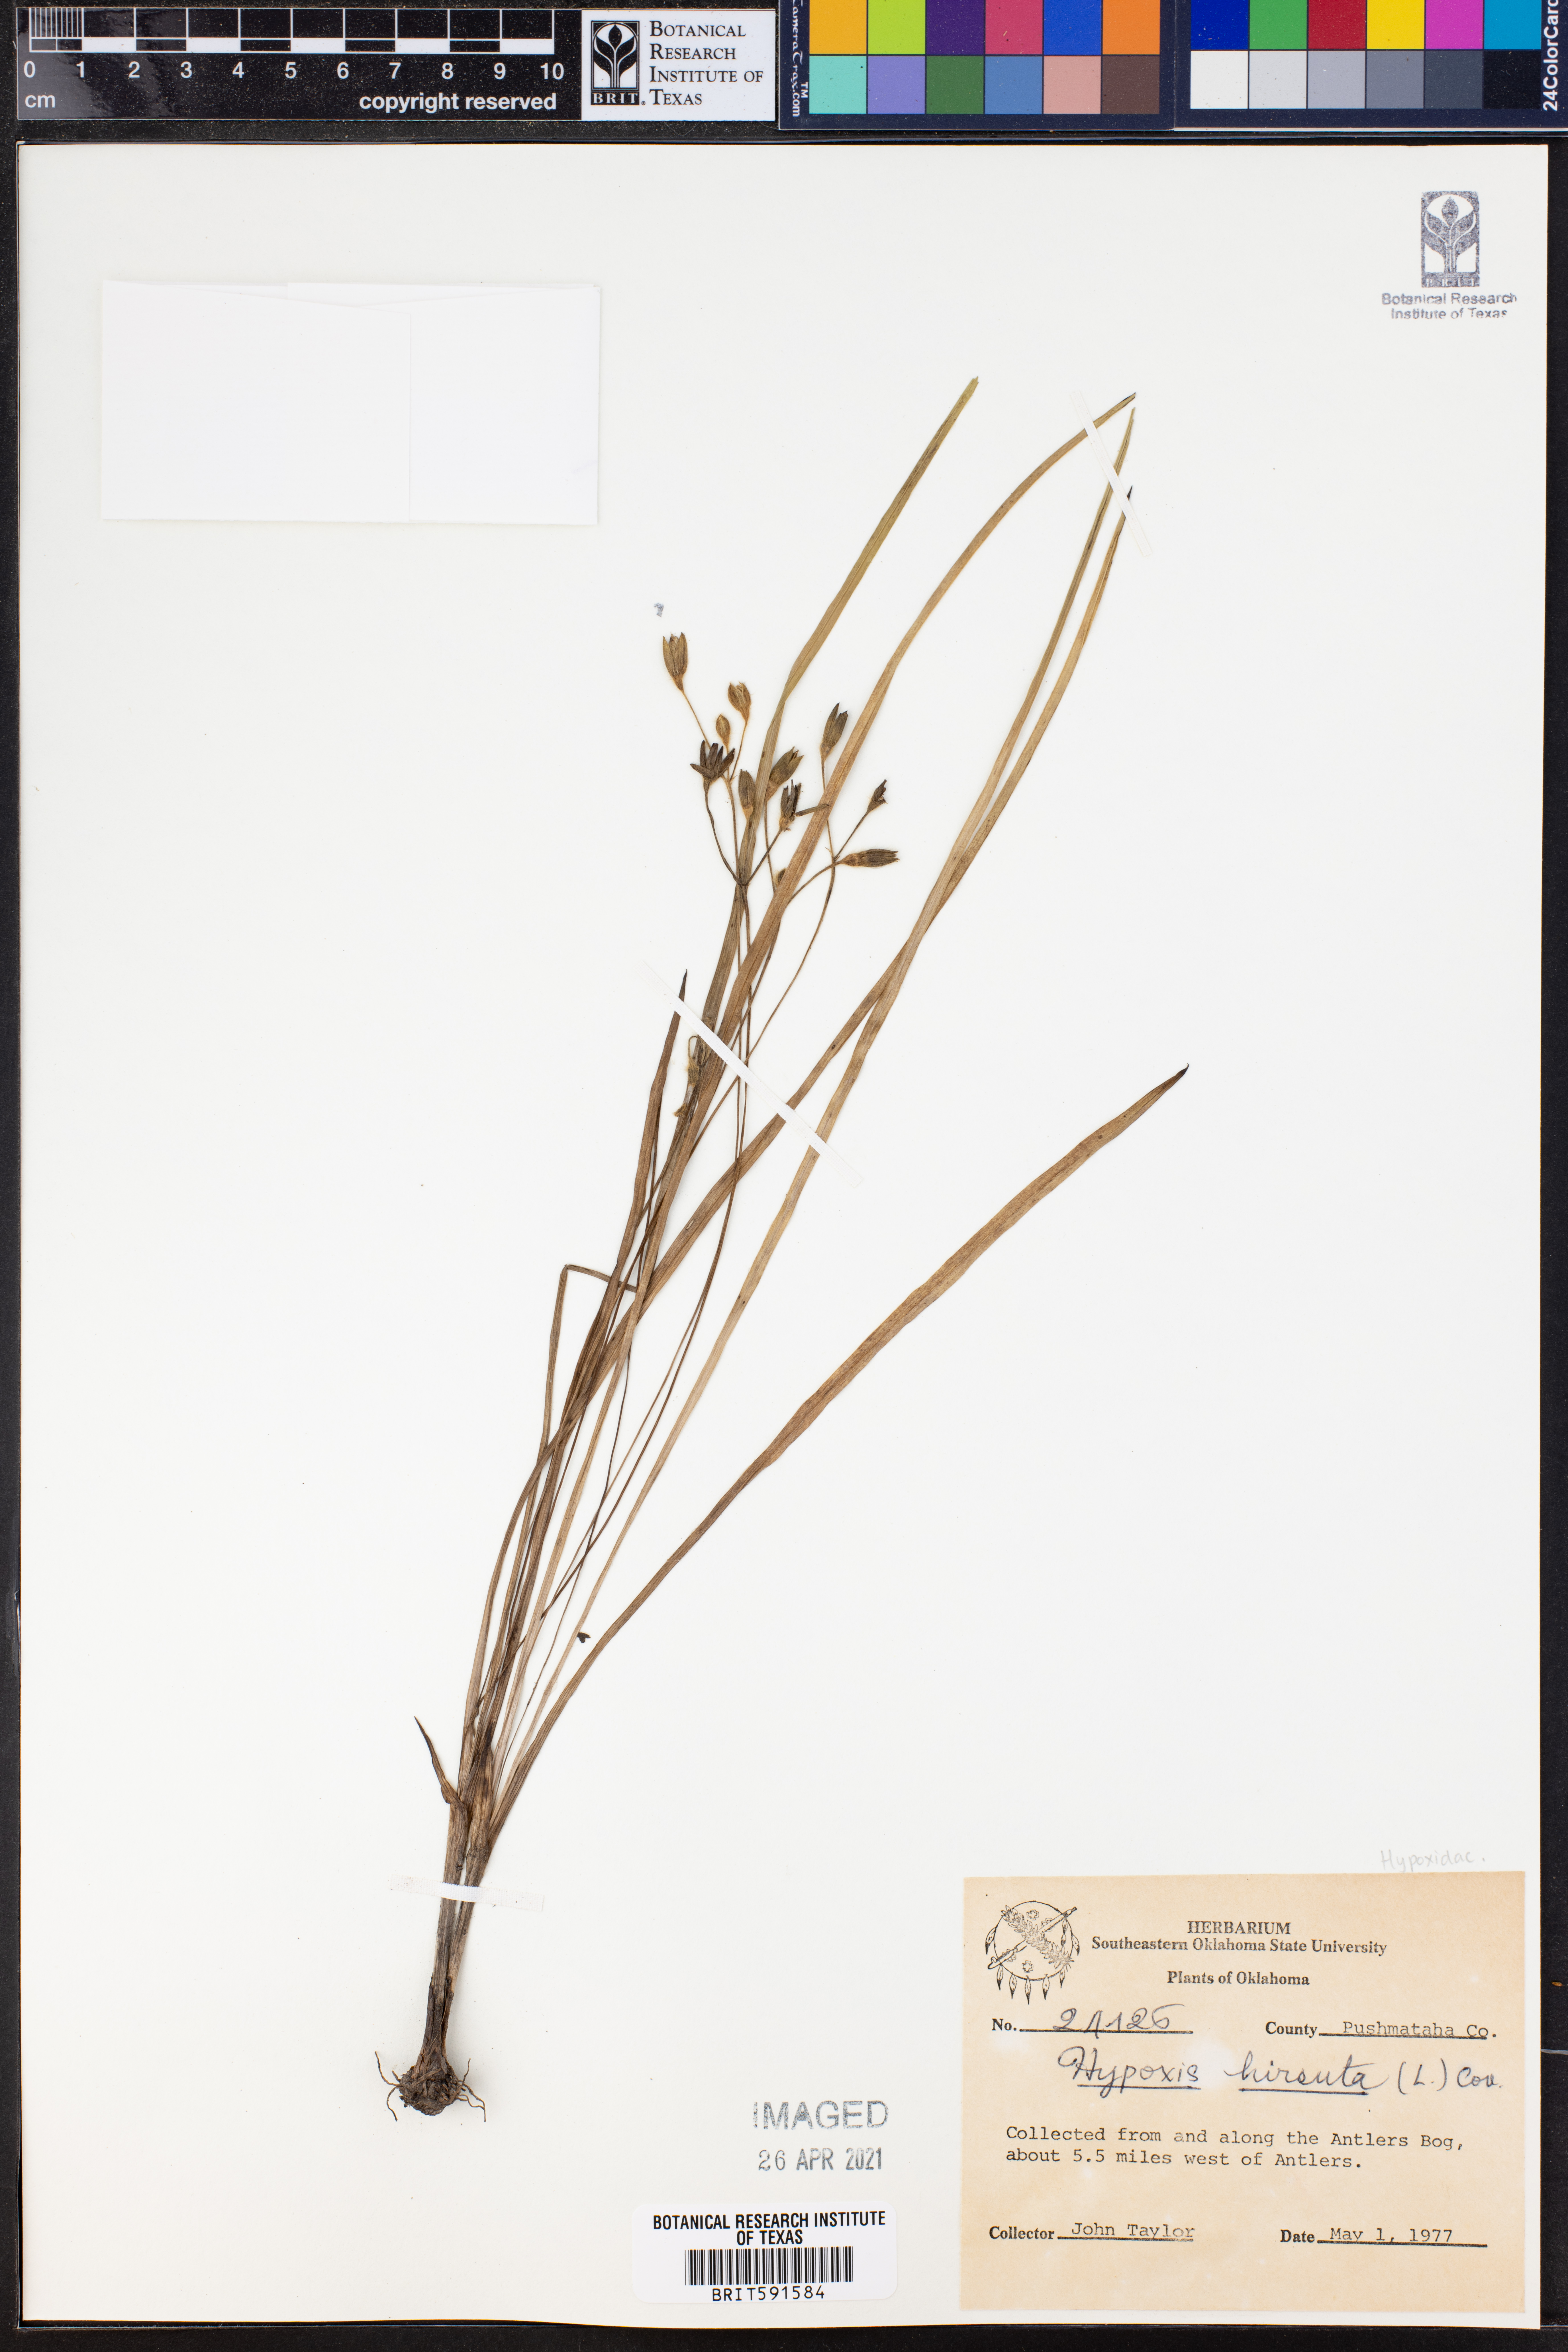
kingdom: Plantae
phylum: Tracheophyta
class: Liliopsida
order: Asparagales
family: Hypoxidaceae
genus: Hypoxis
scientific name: Hypoxis hirsuta
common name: Common goldstar
